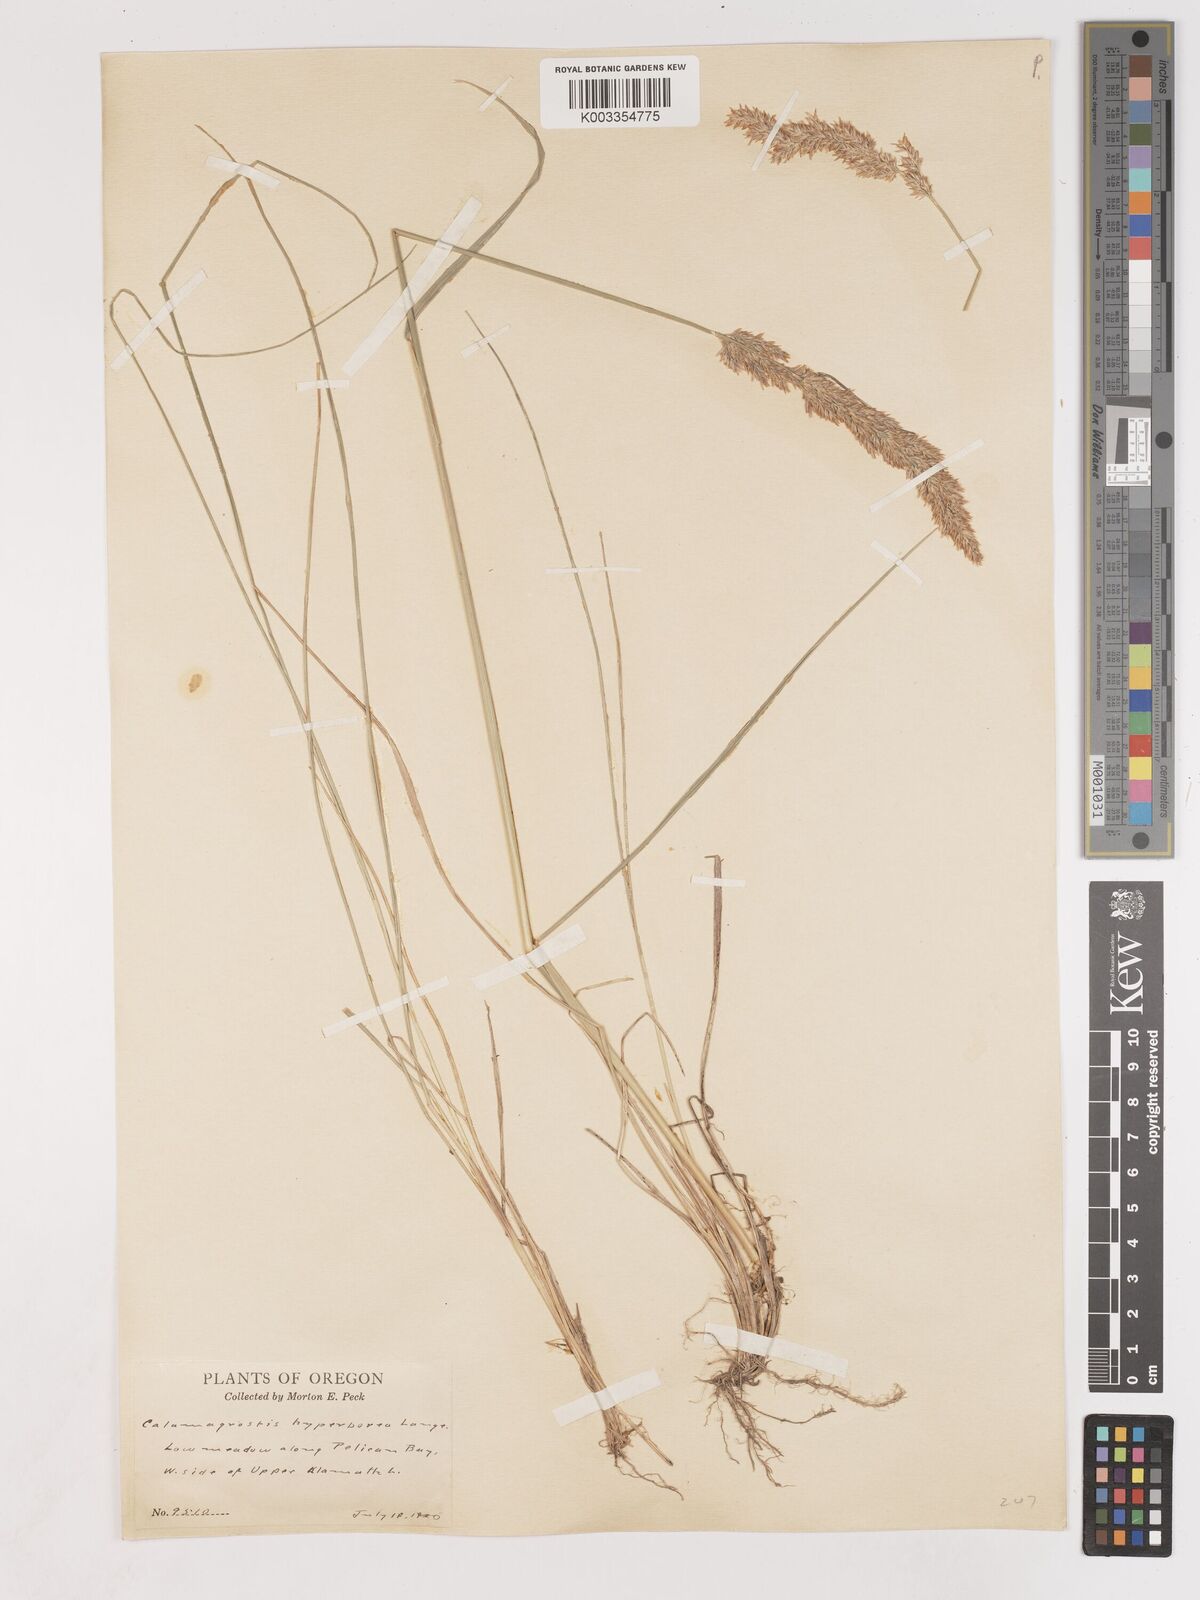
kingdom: Plantae
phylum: Tracheophyta
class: Liliopsida
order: Poales
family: Poaceae
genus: Cinnagrostis
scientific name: Cinnagrostis recta
